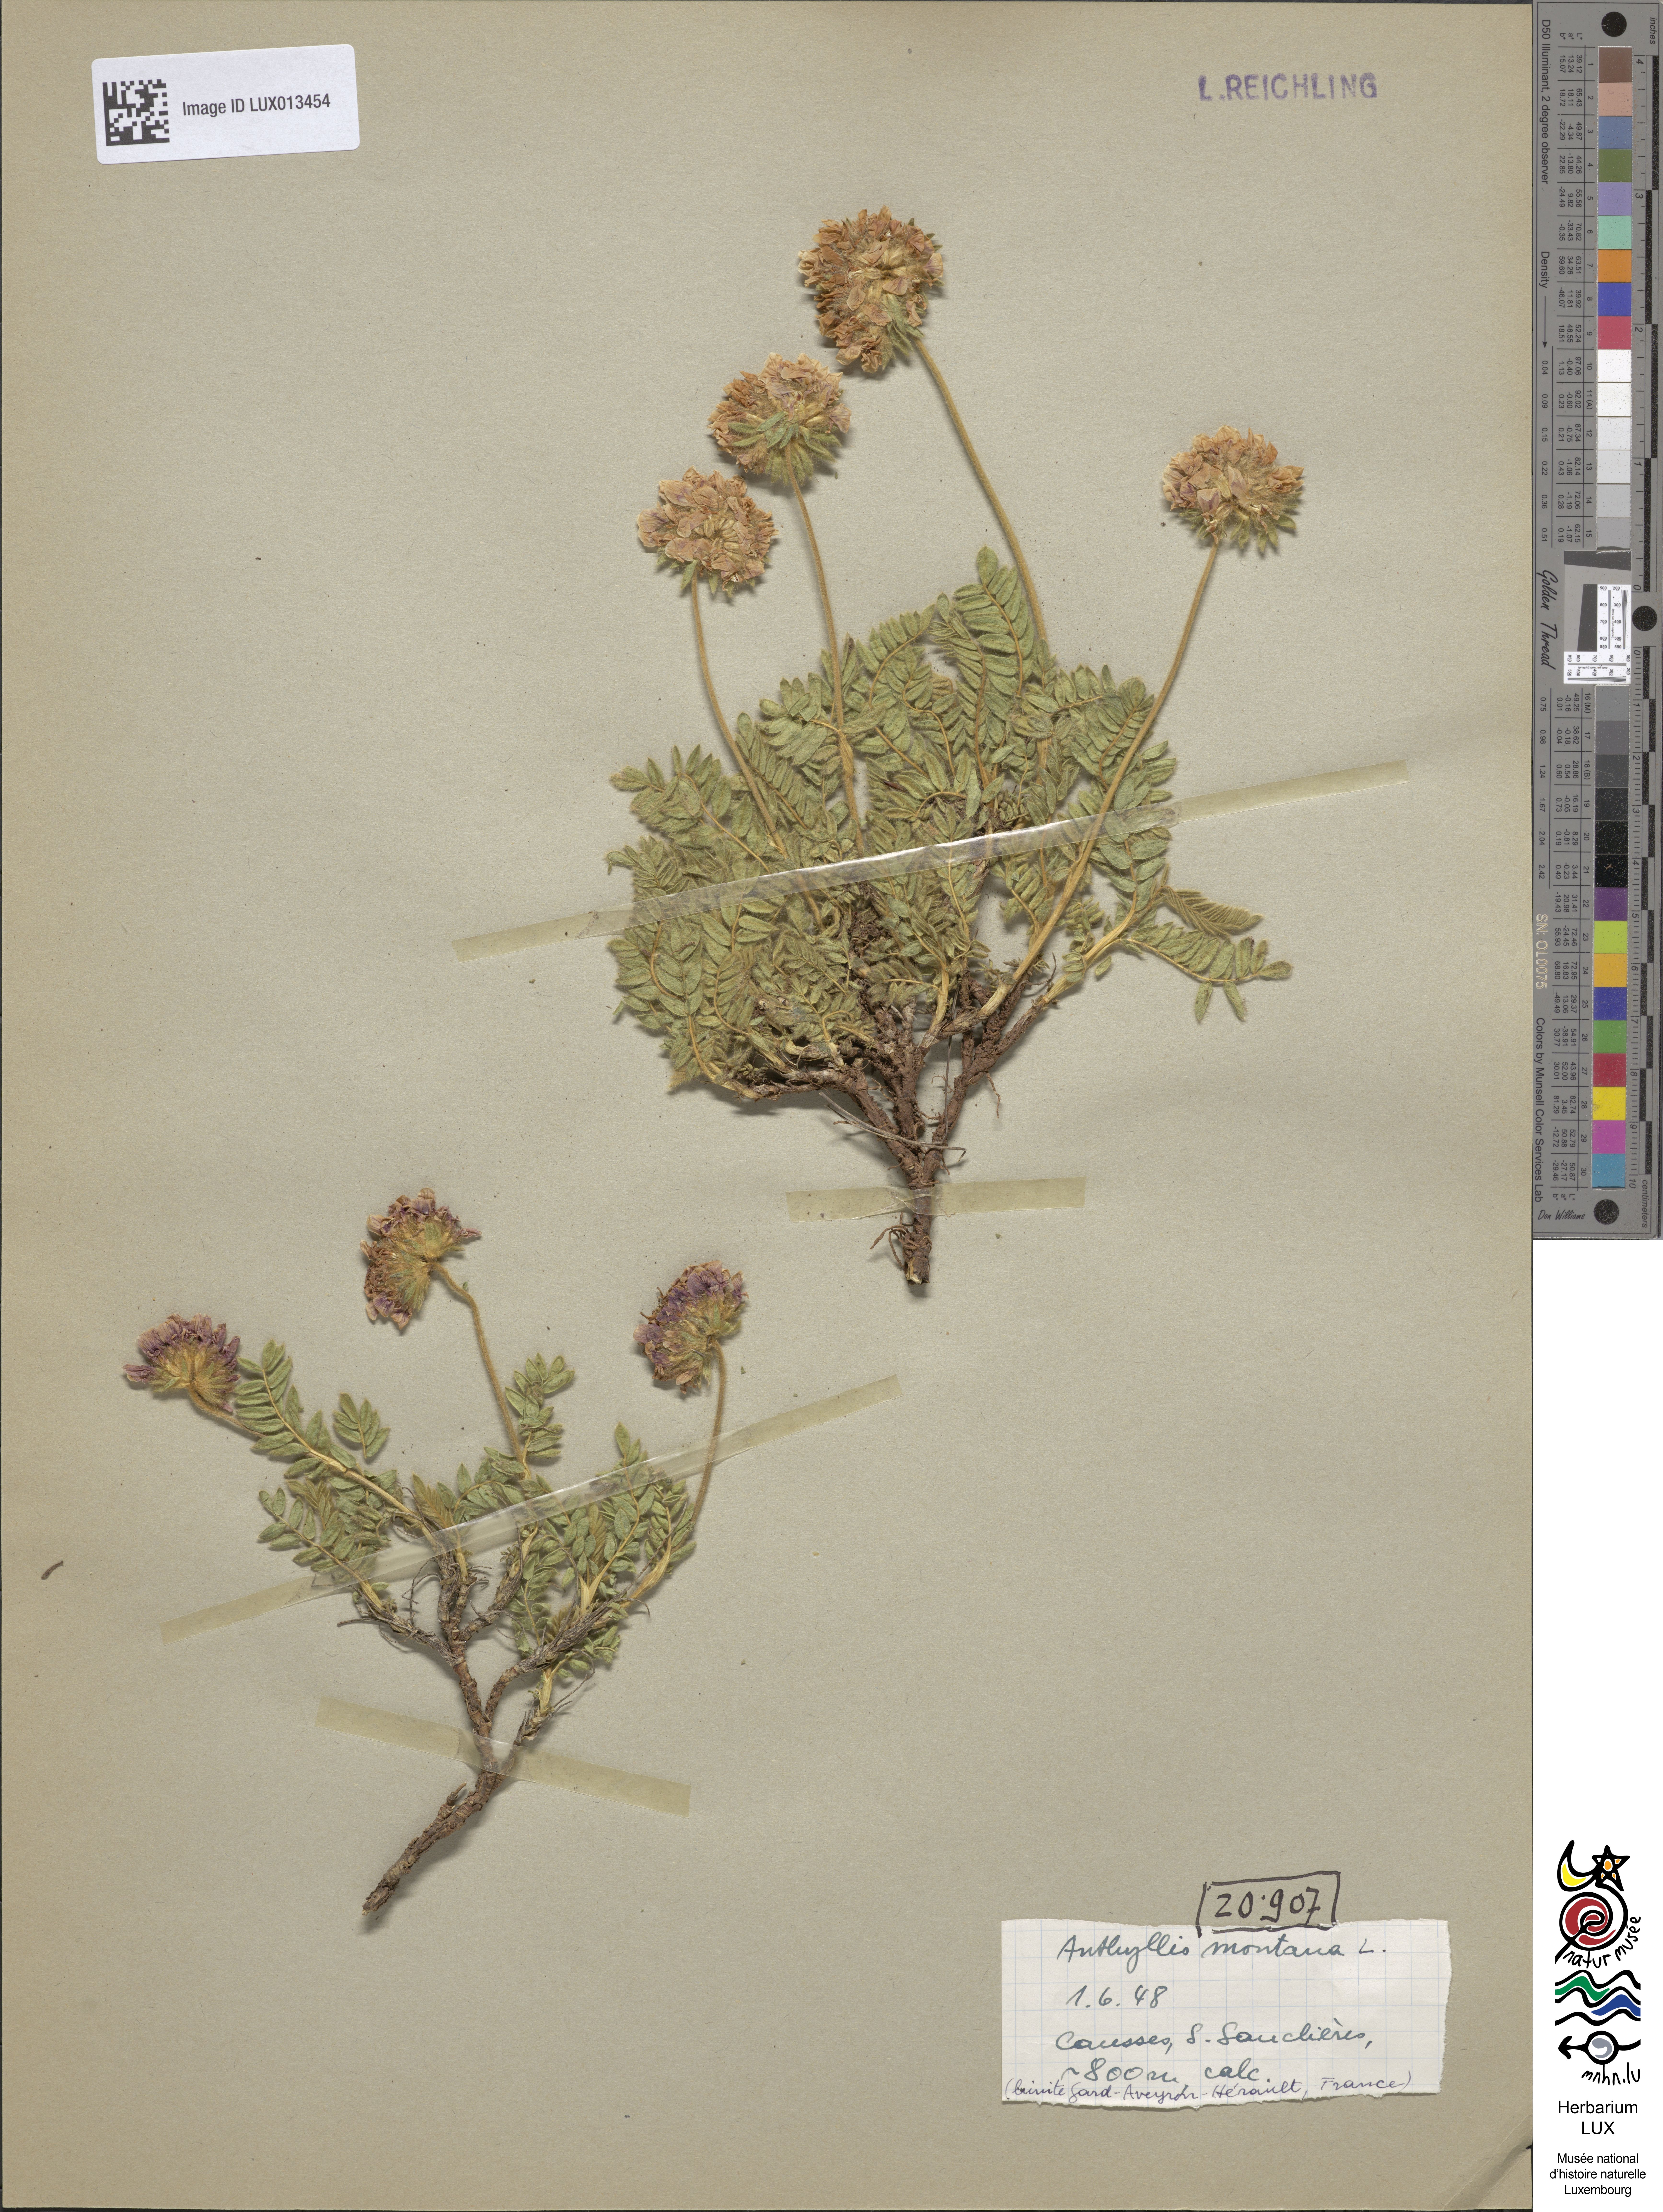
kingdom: Plantae
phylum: Tracheophyta
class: Magnoliopsida
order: Fabales
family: Fabaceae
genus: Anthyllis
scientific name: Anthyllis montana
